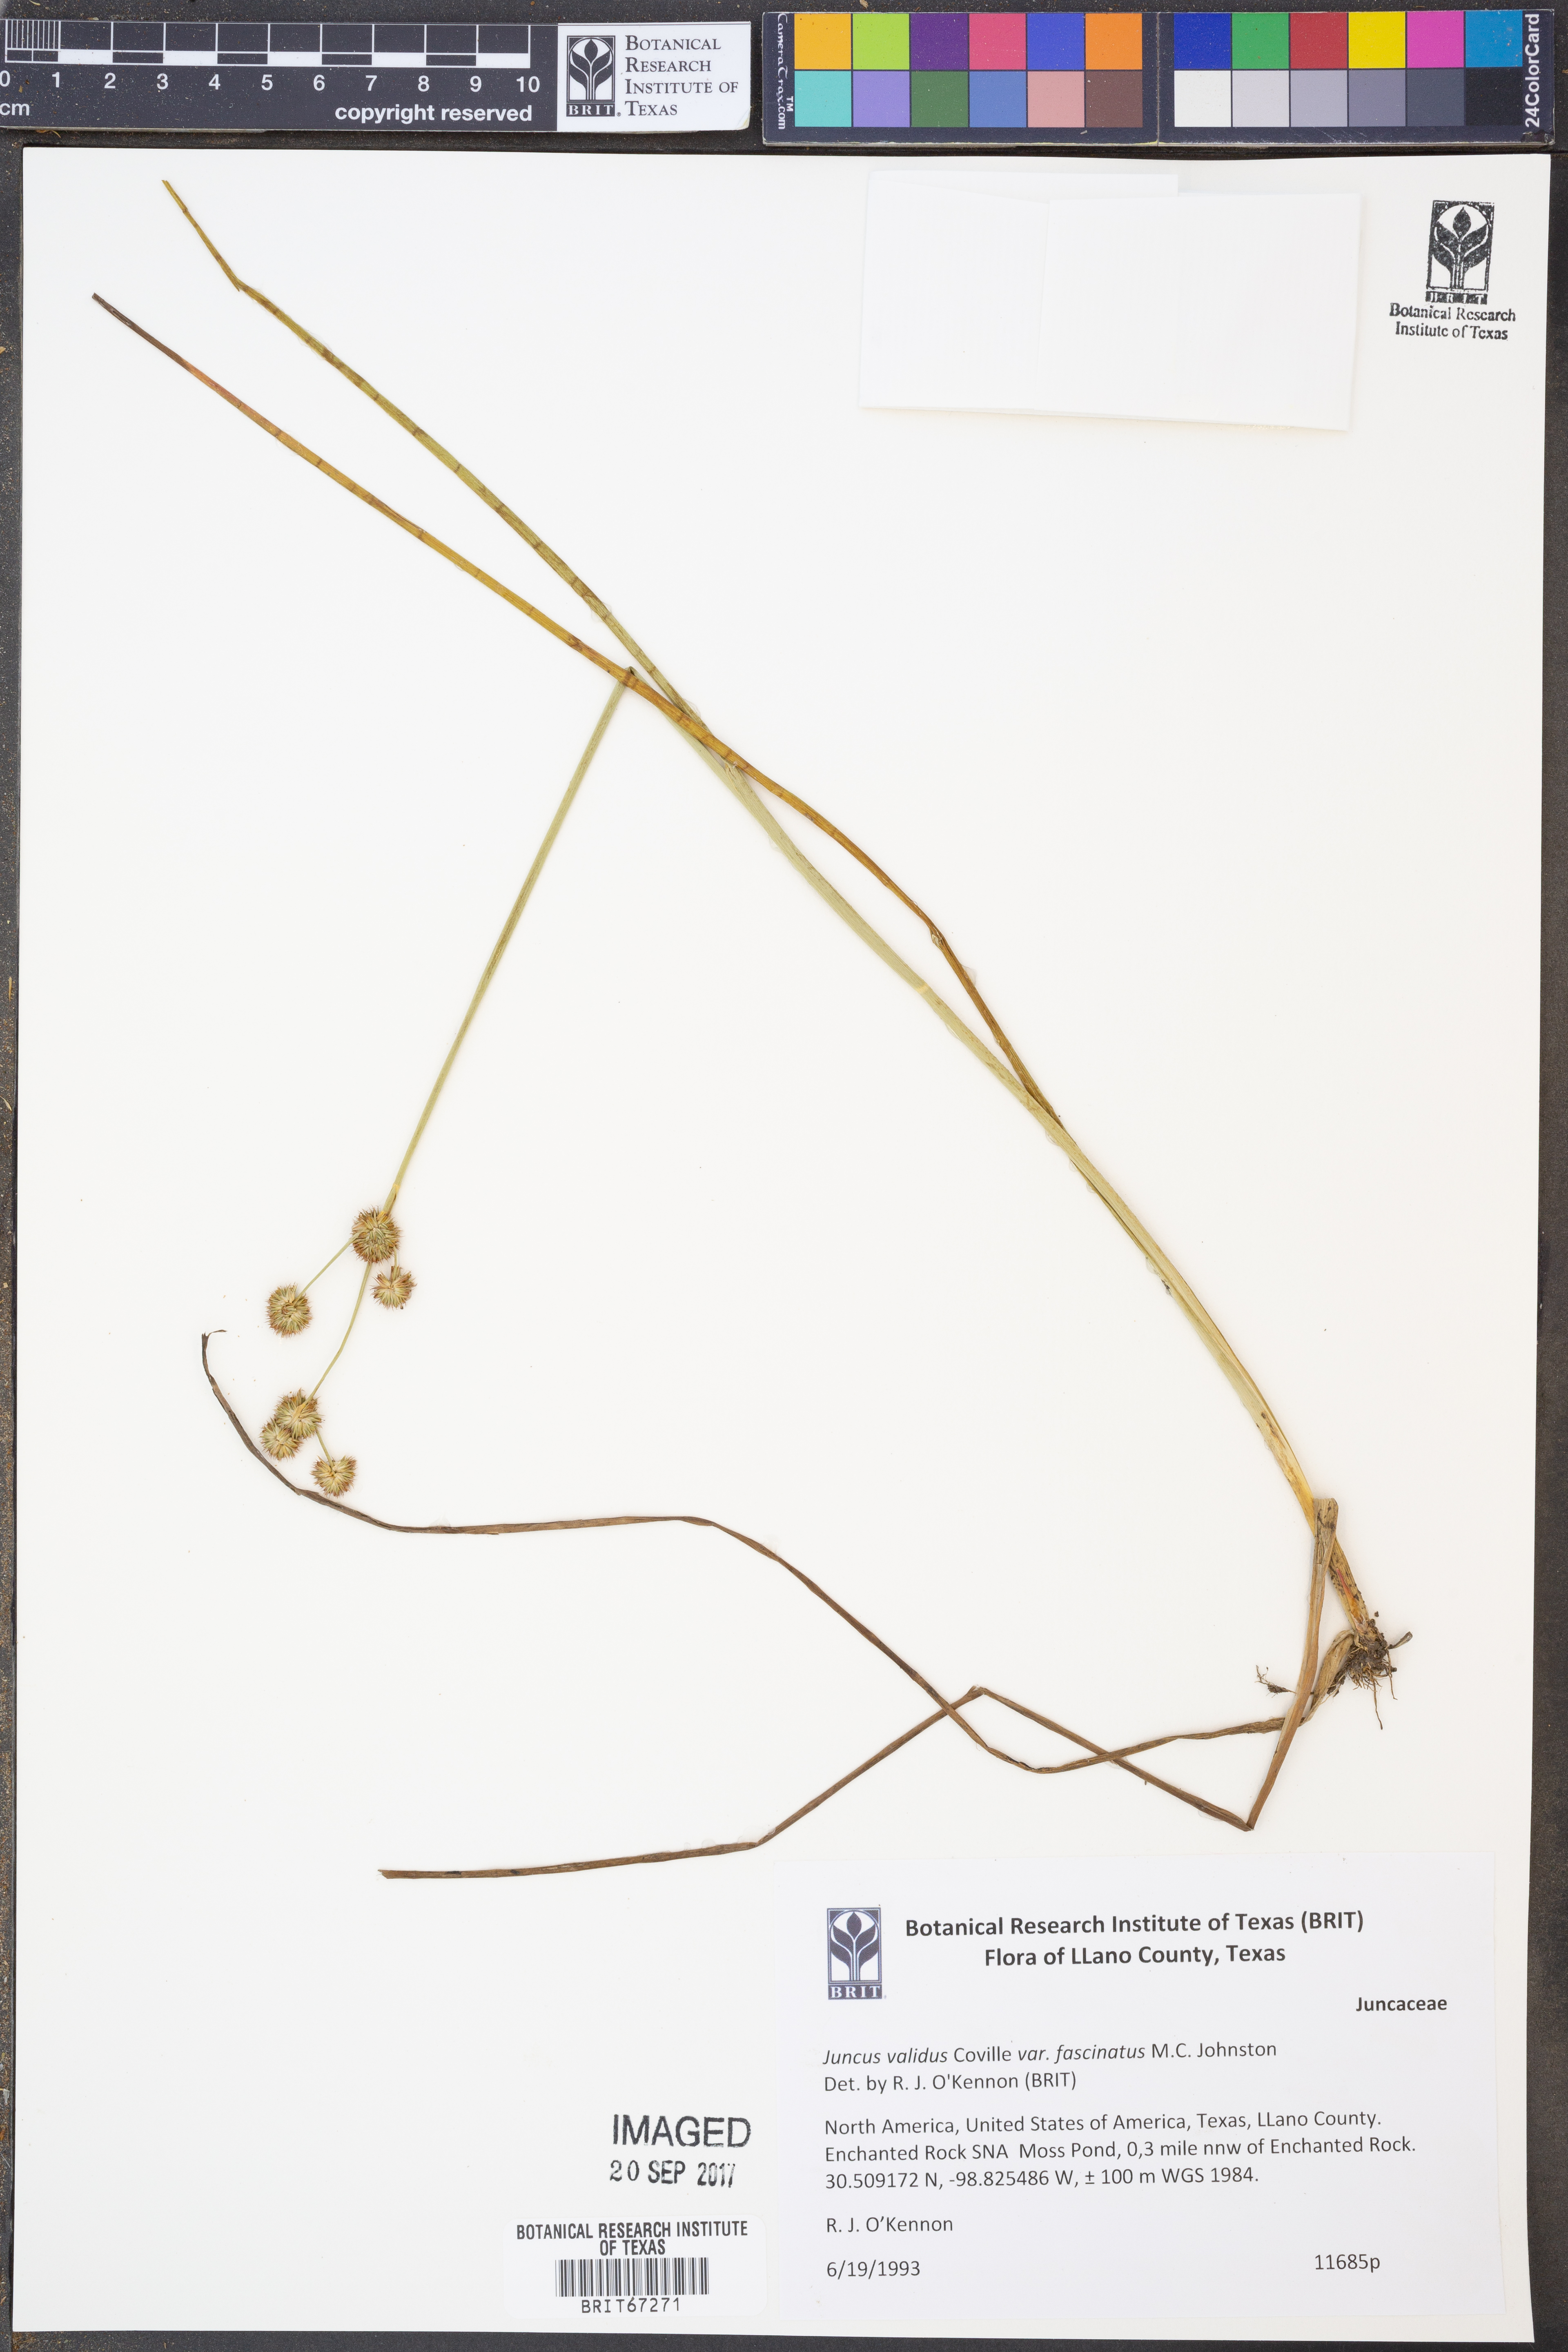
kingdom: Plantae
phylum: Tracheophyta
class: Liliopsida
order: Poales
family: Juncaceae
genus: Juncus
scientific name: Juncus fascinatus
